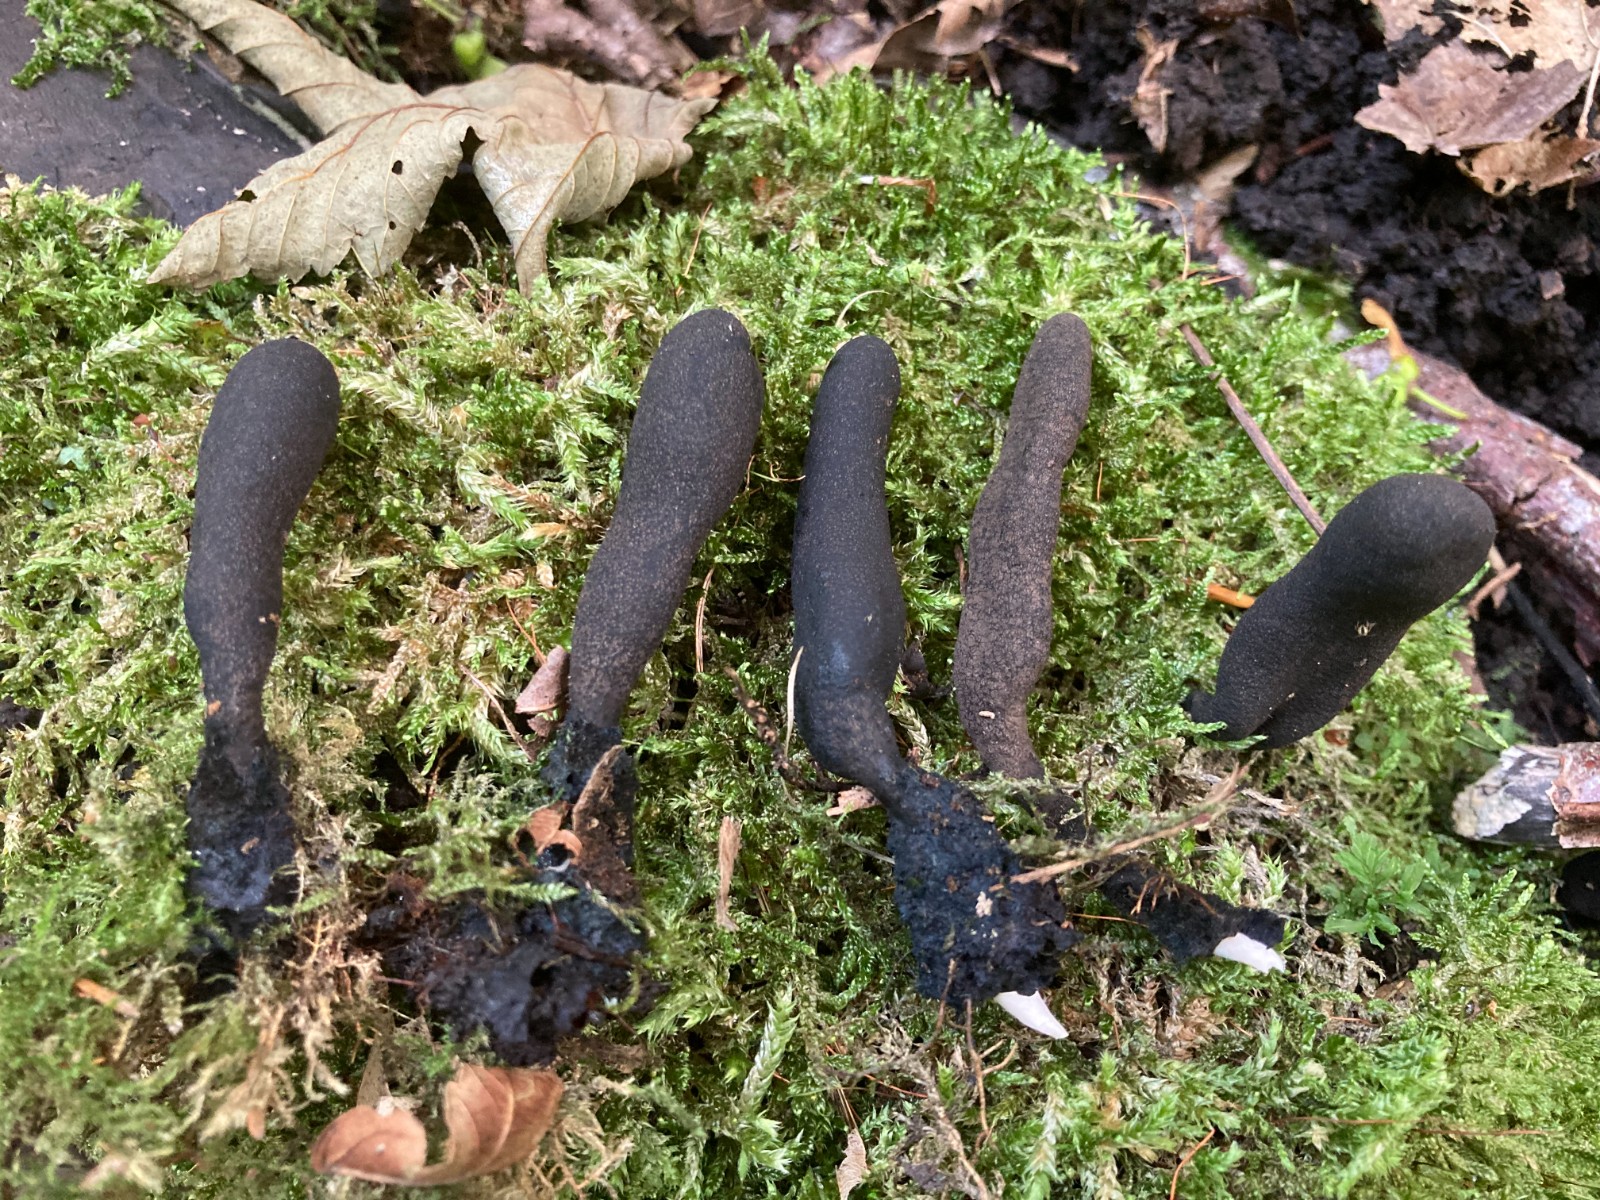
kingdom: Fungi
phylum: Ascomycota
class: Sordariomycetes
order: Xylariales
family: Xylariaceae
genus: Xylaria
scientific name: Xylaria polymorpha
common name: kølle-stødsvamp
